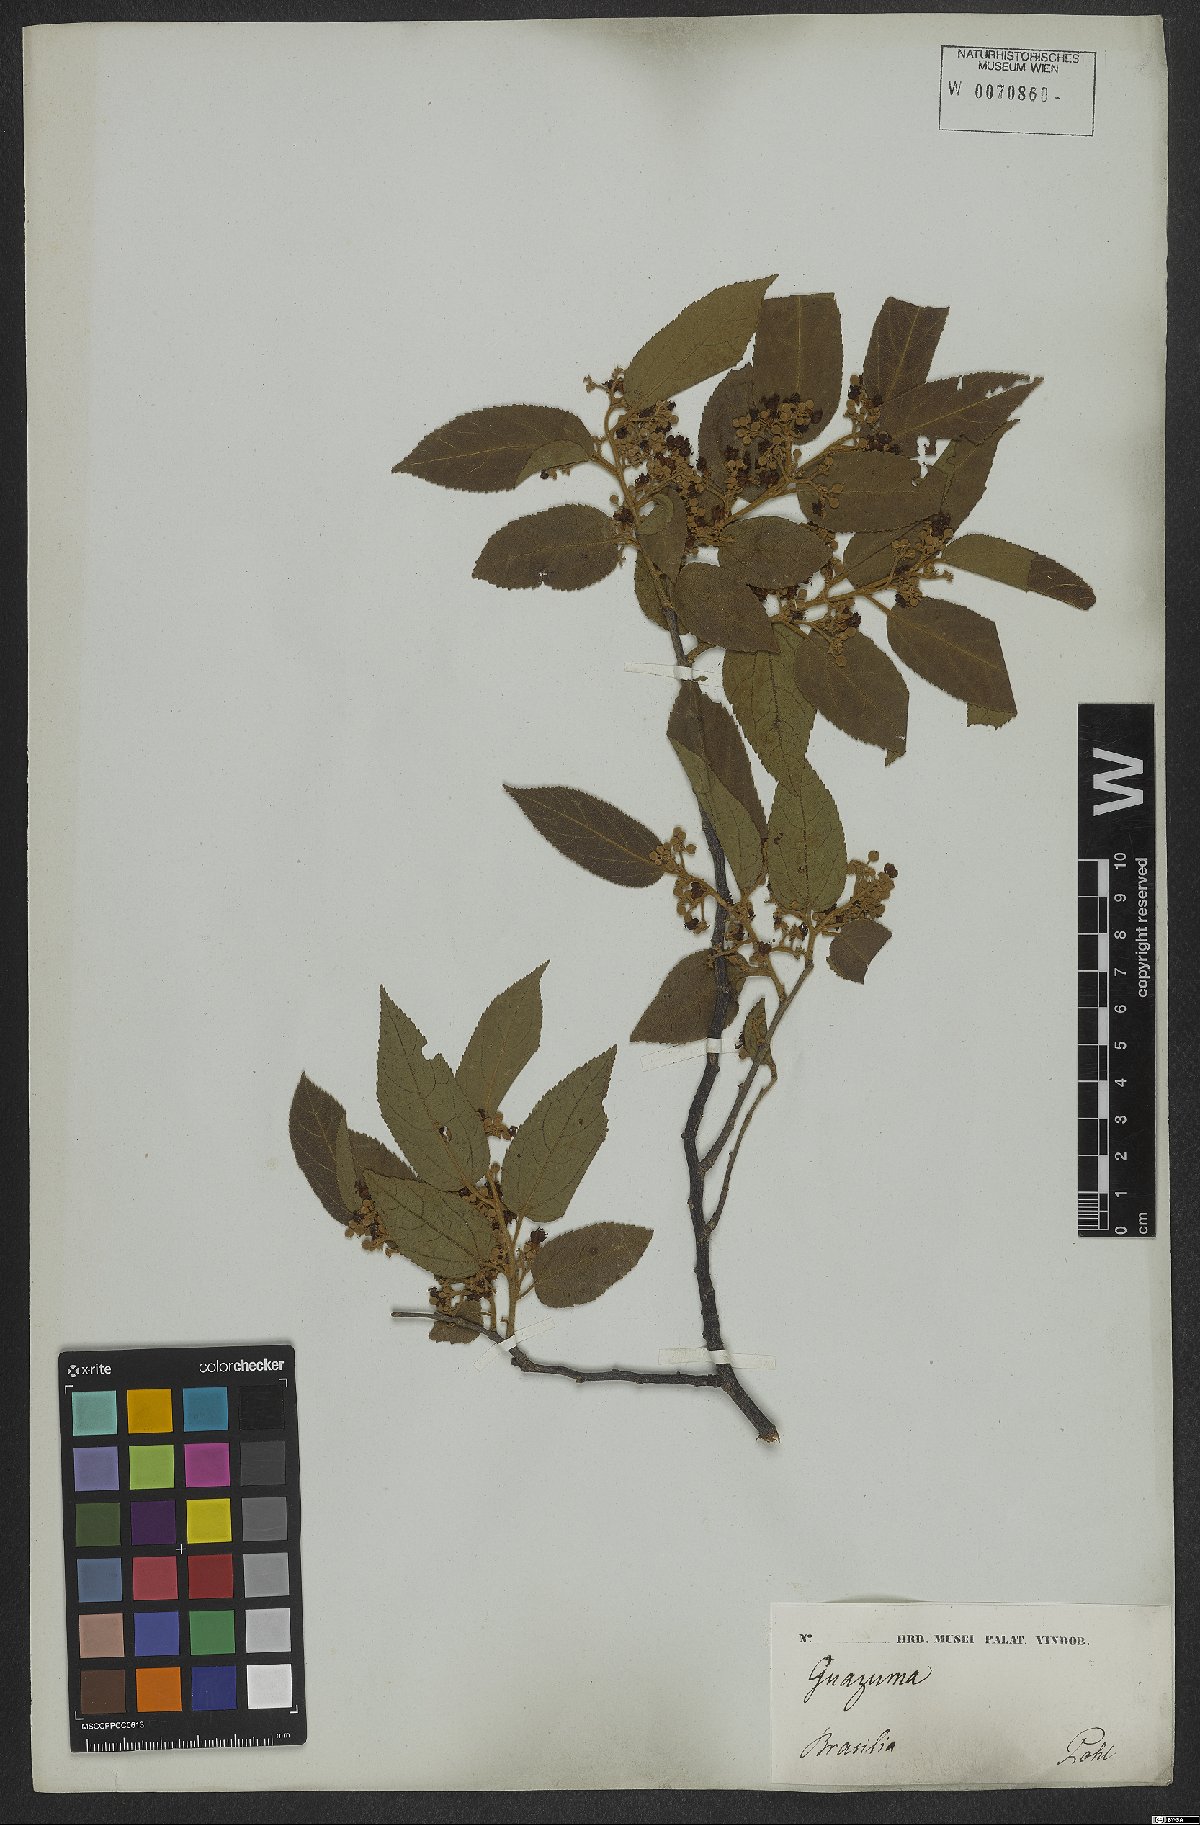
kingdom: Plantae
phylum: Tracheophyta
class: Magnoliopsida
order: Malvales
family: Malvaceae
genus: Guazuma
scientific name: Guazuma
